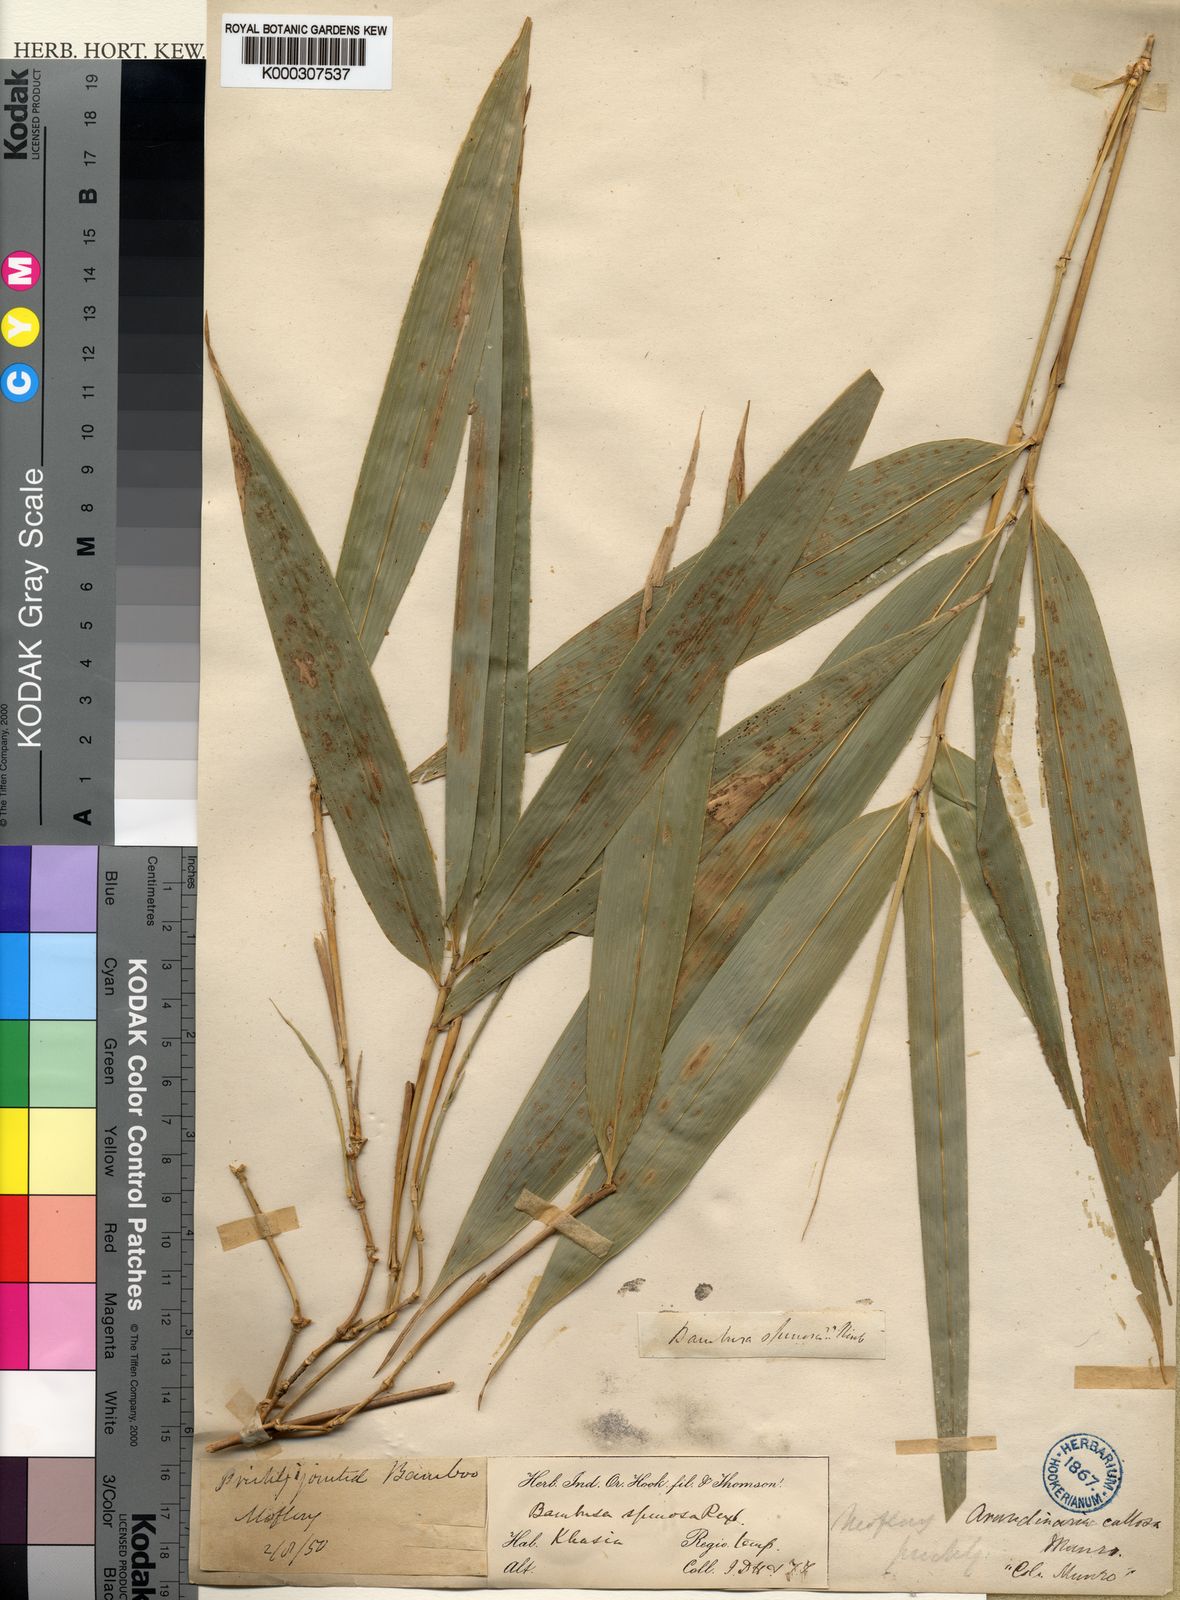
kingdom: Plantae
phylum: Tracheophyta
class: Liliopsida
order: Poales
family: Poaceae
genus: Chimonobambusa
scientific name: Chimonobambusa callosa
